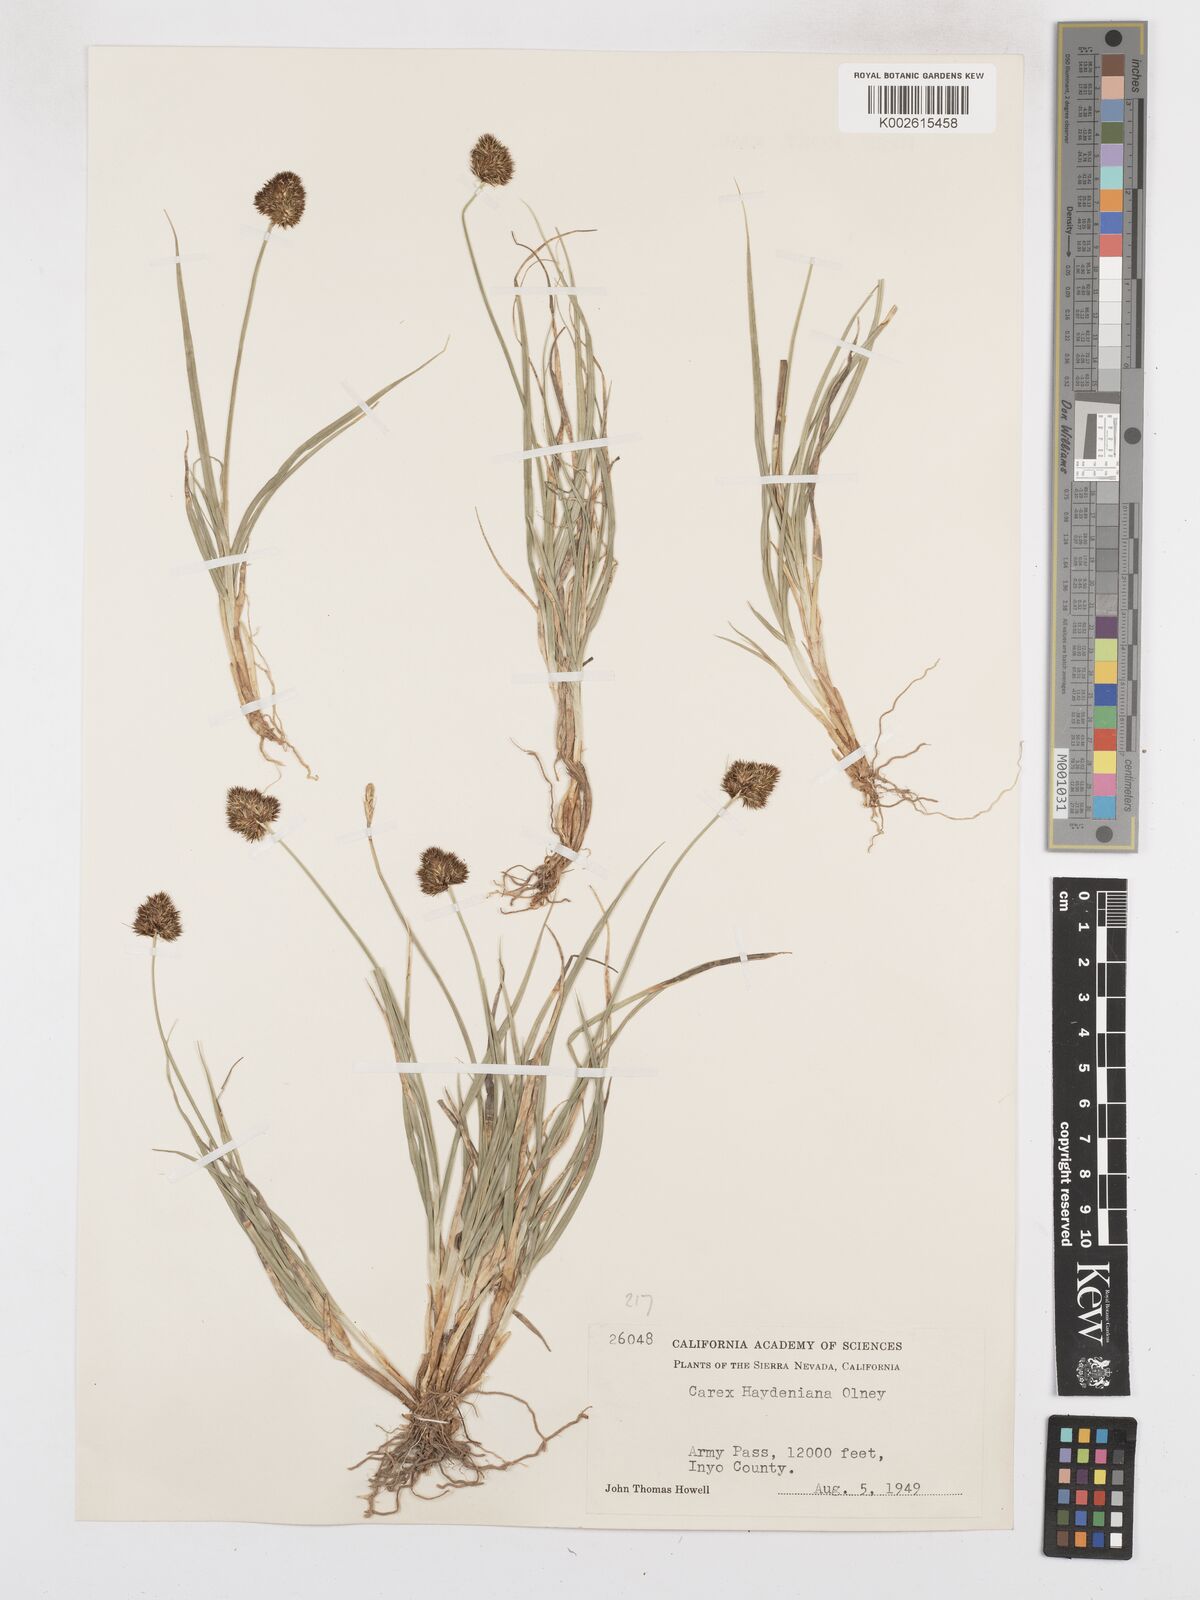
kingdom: Plantae
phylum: Tracheophyta
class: Liliopsida
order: Poales
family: Cyperaceae
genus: Carex
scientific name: Carex haydeniana
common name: Cloud sedge
